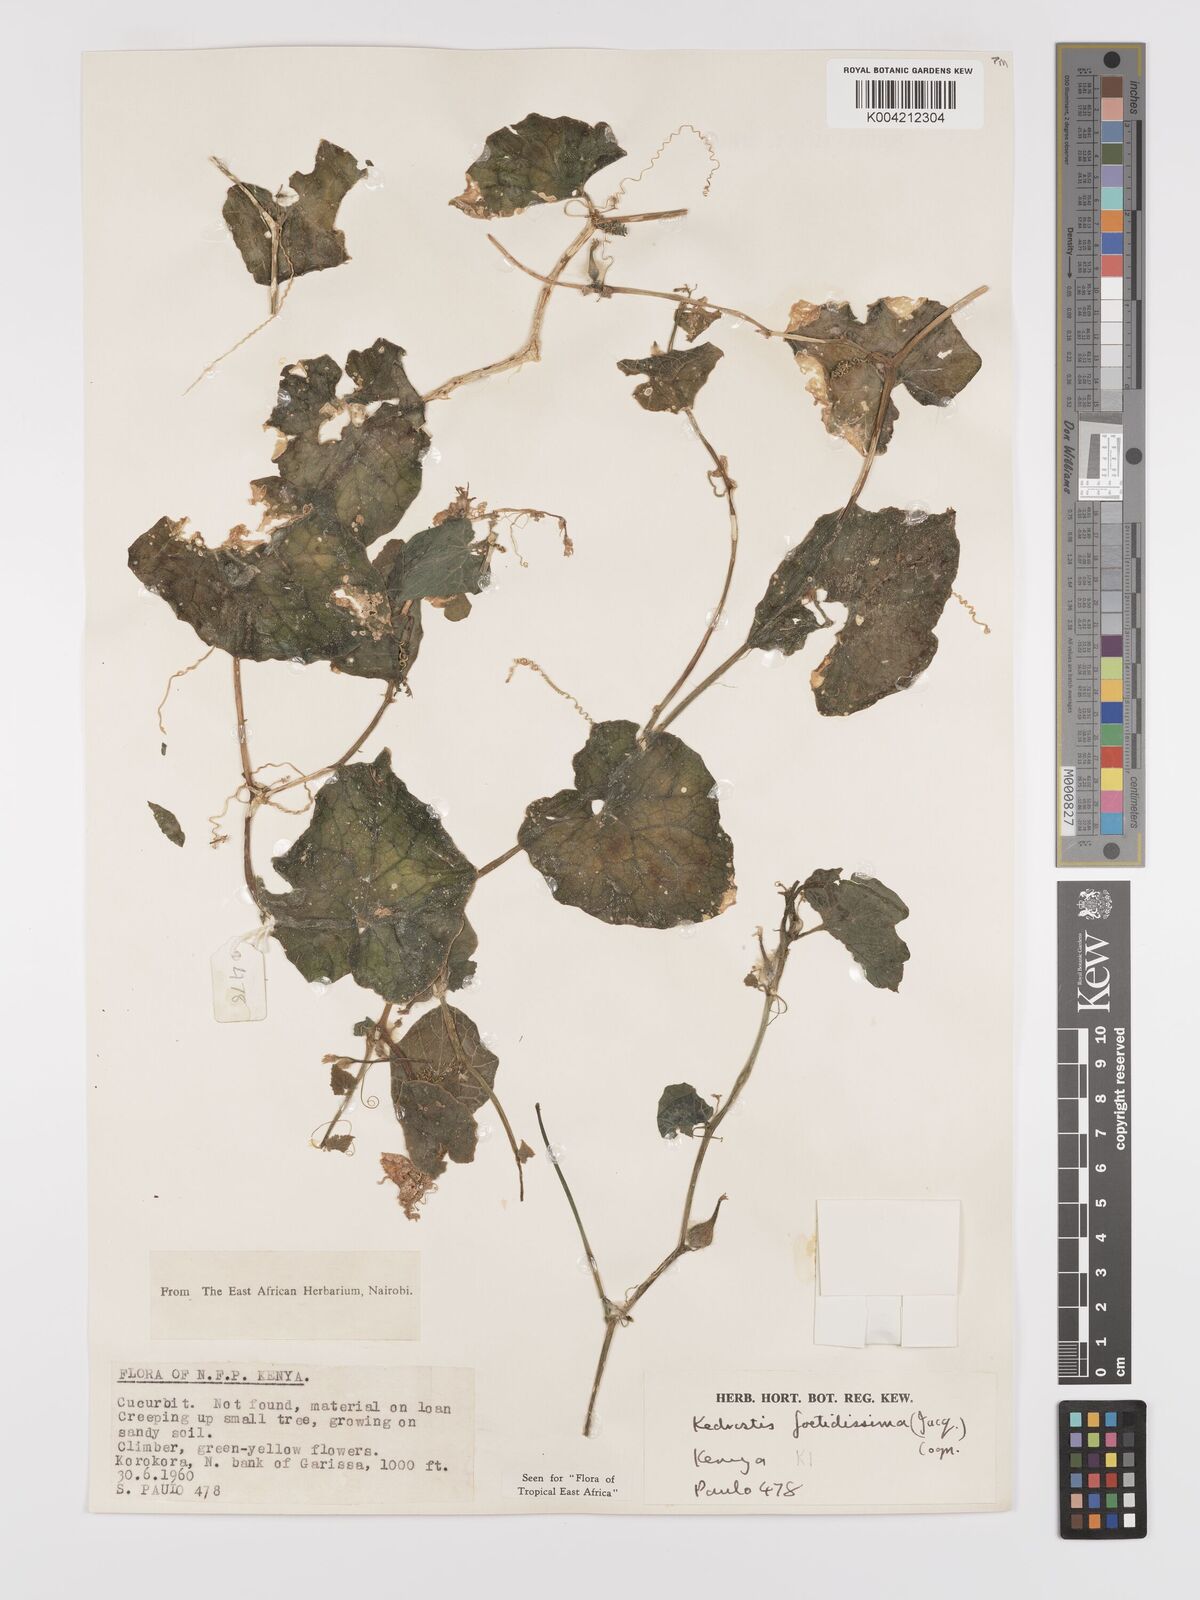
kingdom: Plantae
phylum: Tracheophyta
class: Magnoliopsida
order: Cucurbitales
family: Cucurbitaceae
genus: Kedrostis
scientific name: Kedrostis foetidissima
